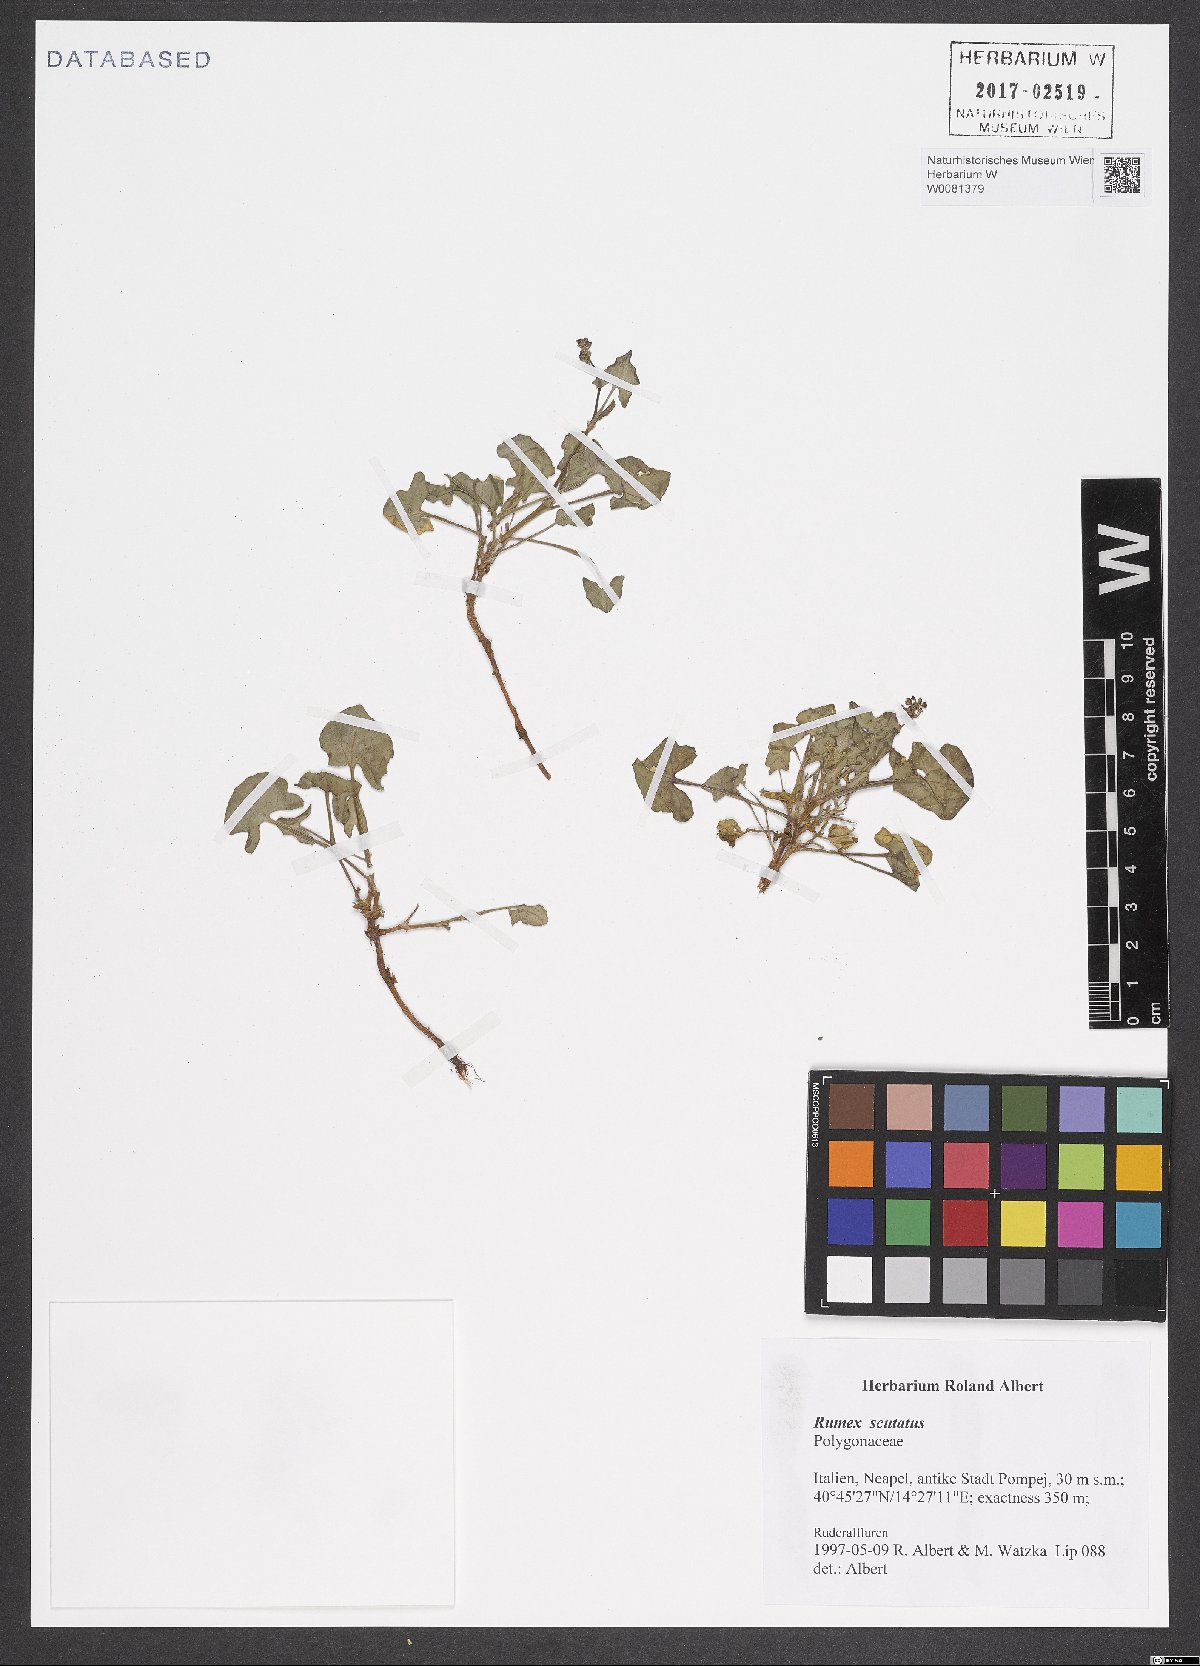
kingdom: Plantae
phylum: Tracheophyta
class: Magnoliopsida
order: Caryophyllales
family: Polygonaceae
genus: Rumex
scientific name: Rumex scutatus
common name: French sorrel
